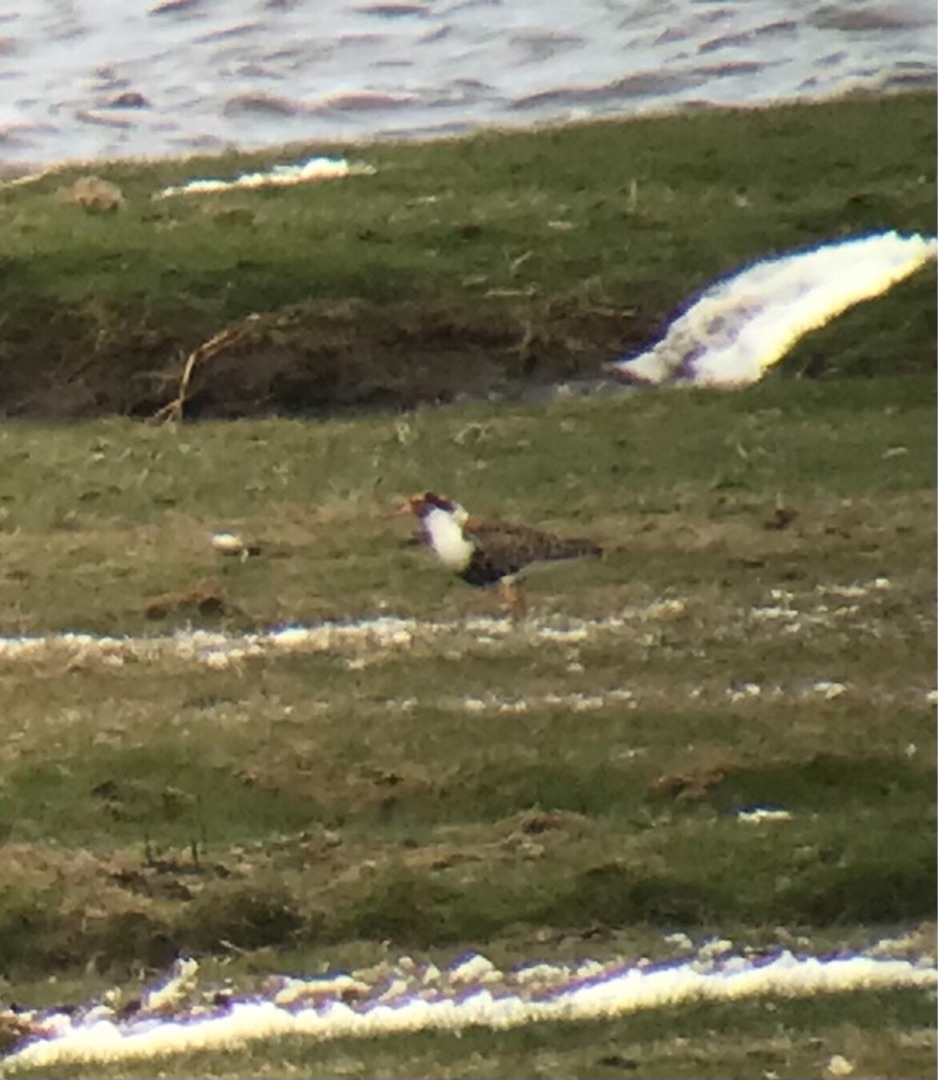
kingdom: Animalia
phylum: Chordata
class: Aves
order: Charadriiformes
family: Scolopacidae
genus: Calidris
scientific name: Calidris pugnax
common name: Brushane
